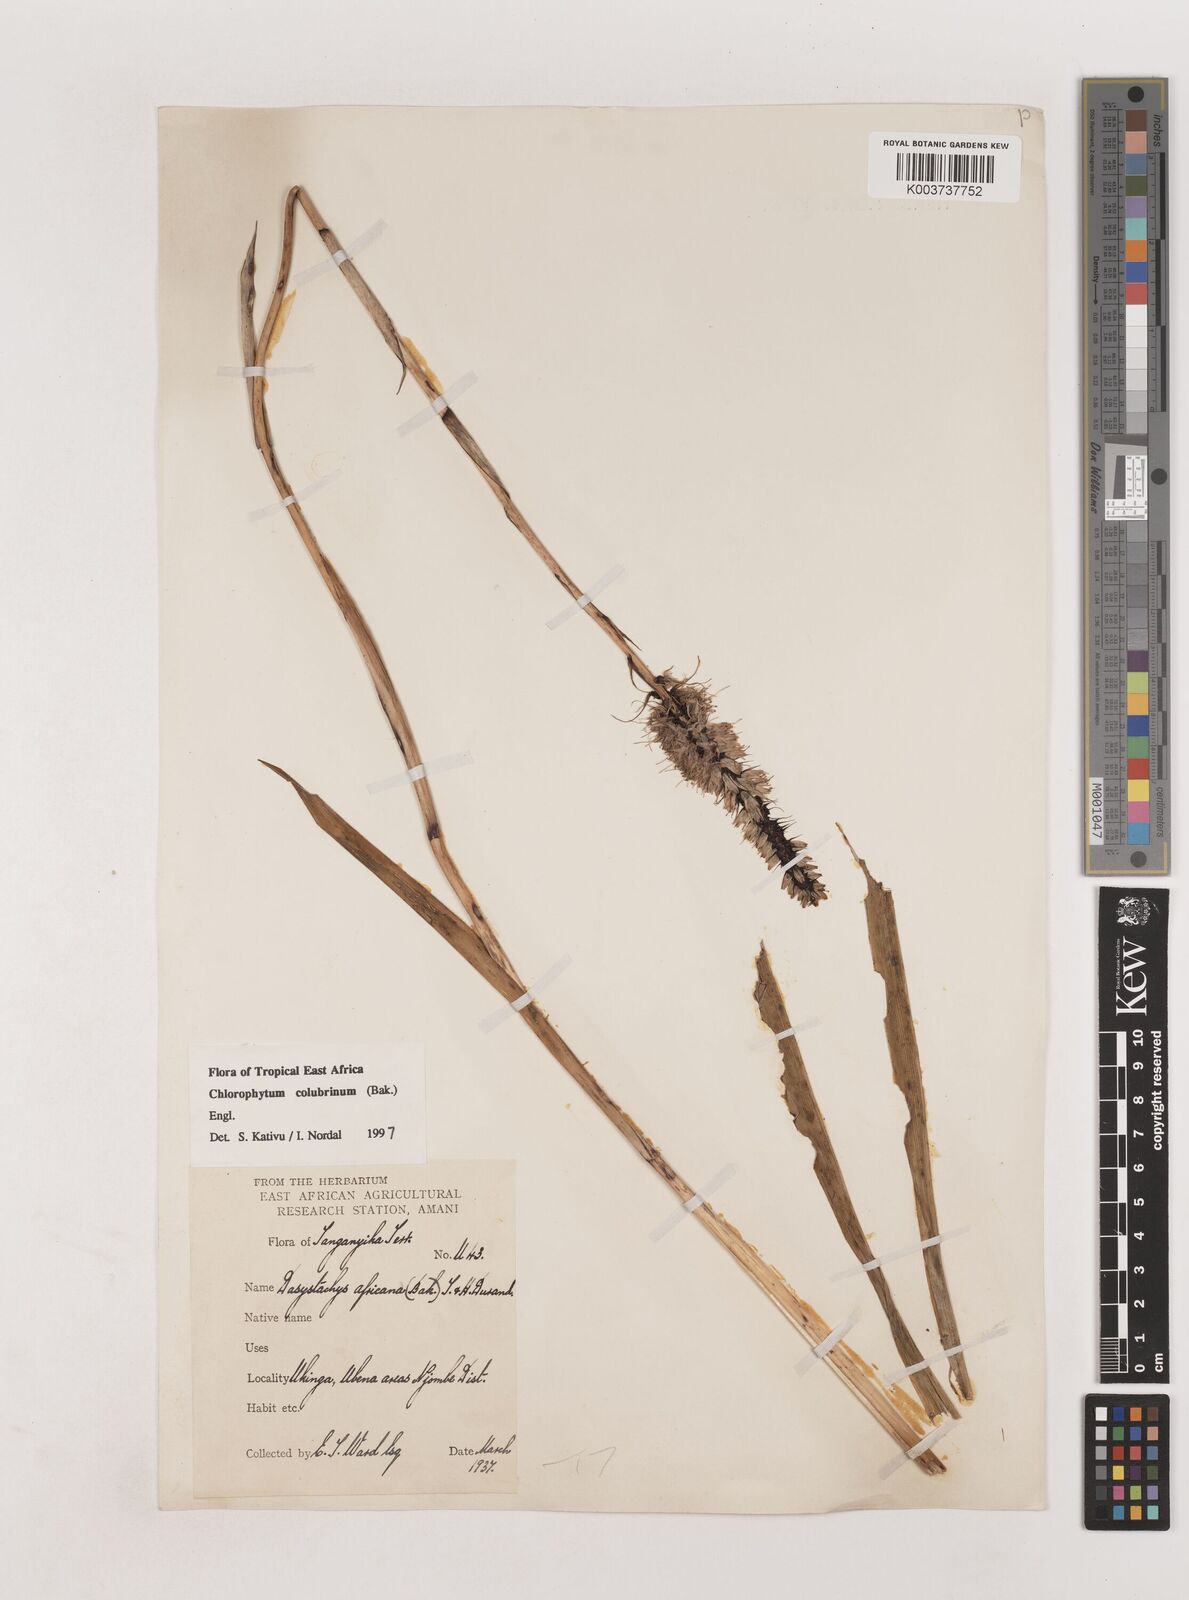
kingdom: Plantae
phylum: Tracheophyta
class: Liliopsida
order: Asparagales
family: Asparagaceae
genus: Chlorophytum
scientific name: Chlorophytum colubrinum
